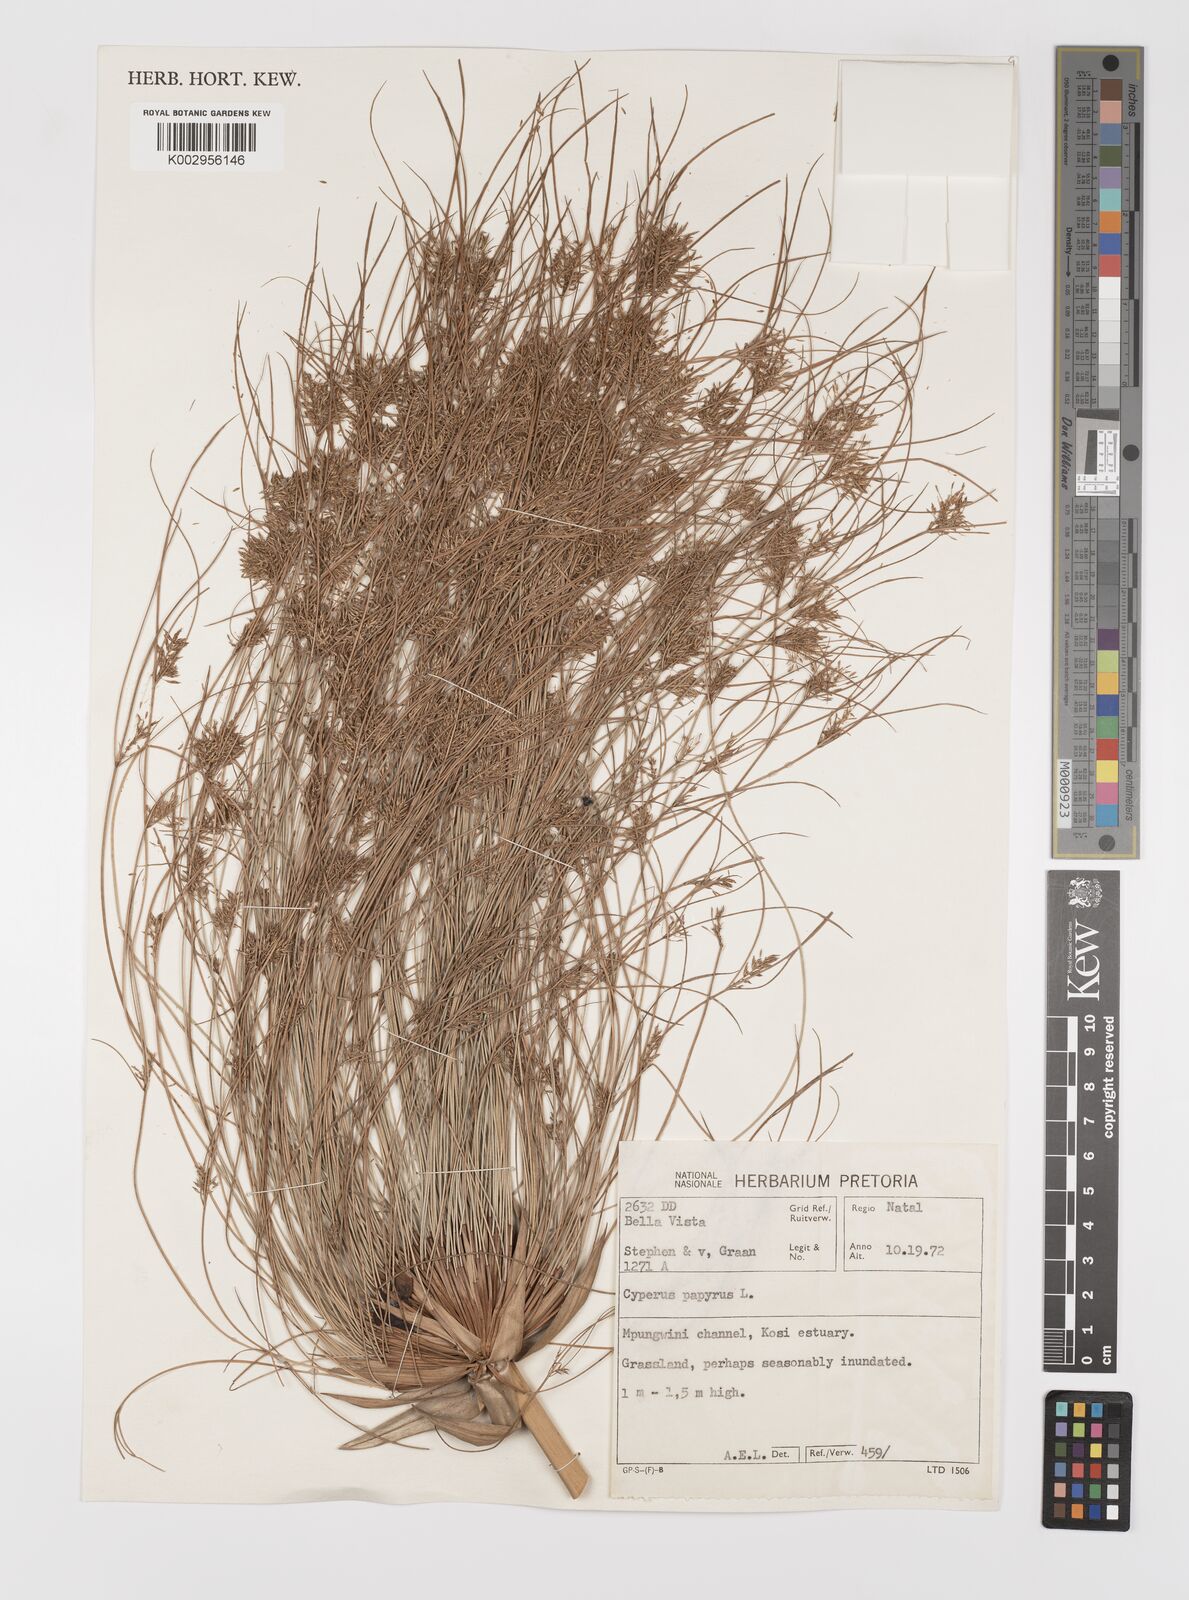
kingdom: Plantae
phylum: Tracheophyta
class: Liliopsida
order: Poales
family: Cyperaceae
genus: Cyperus
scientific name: Cyperus papyrus
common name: Papyrus
